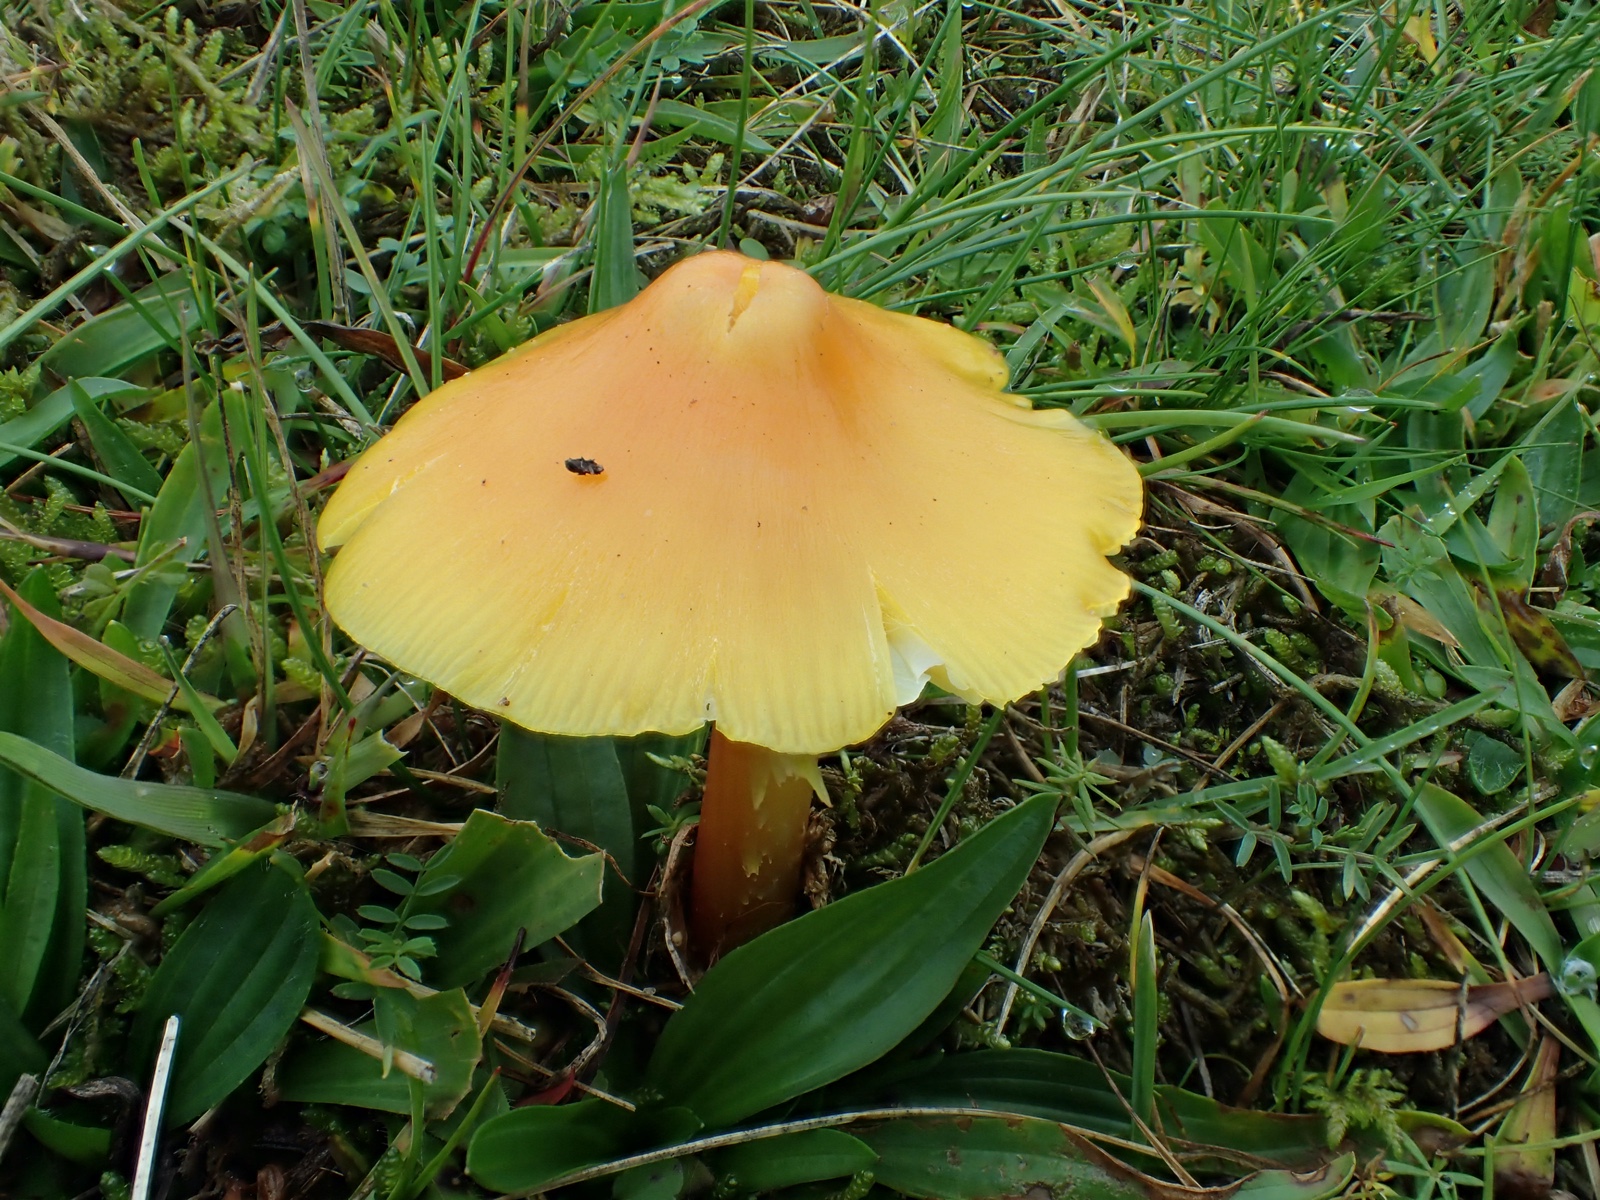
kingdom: Fungi
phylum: Basidiomycota
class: Agaricomycetes
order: Agaricales
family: Hygrophoraceae
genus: Hygrocybe
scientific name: Hygrocybe
